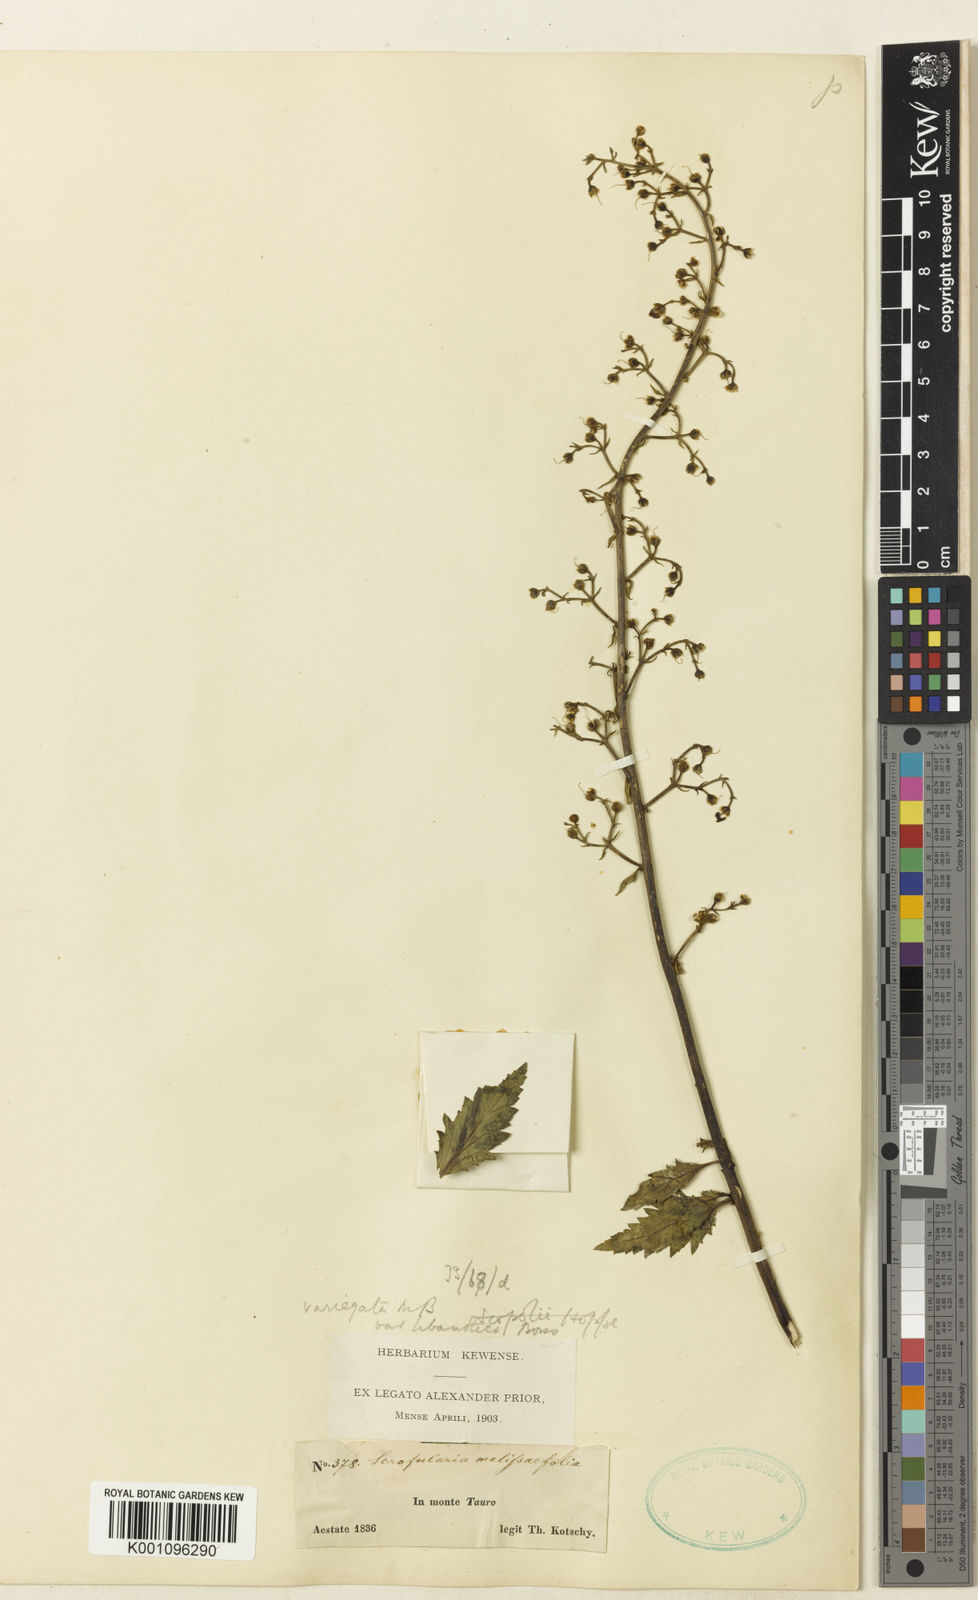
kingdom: Plantae
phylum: Tracheophyta
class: Magnoliopsida
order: Lamiales
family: Scrophulariaceae
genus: Scrophularia
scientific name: Scrophularia heterophylla
